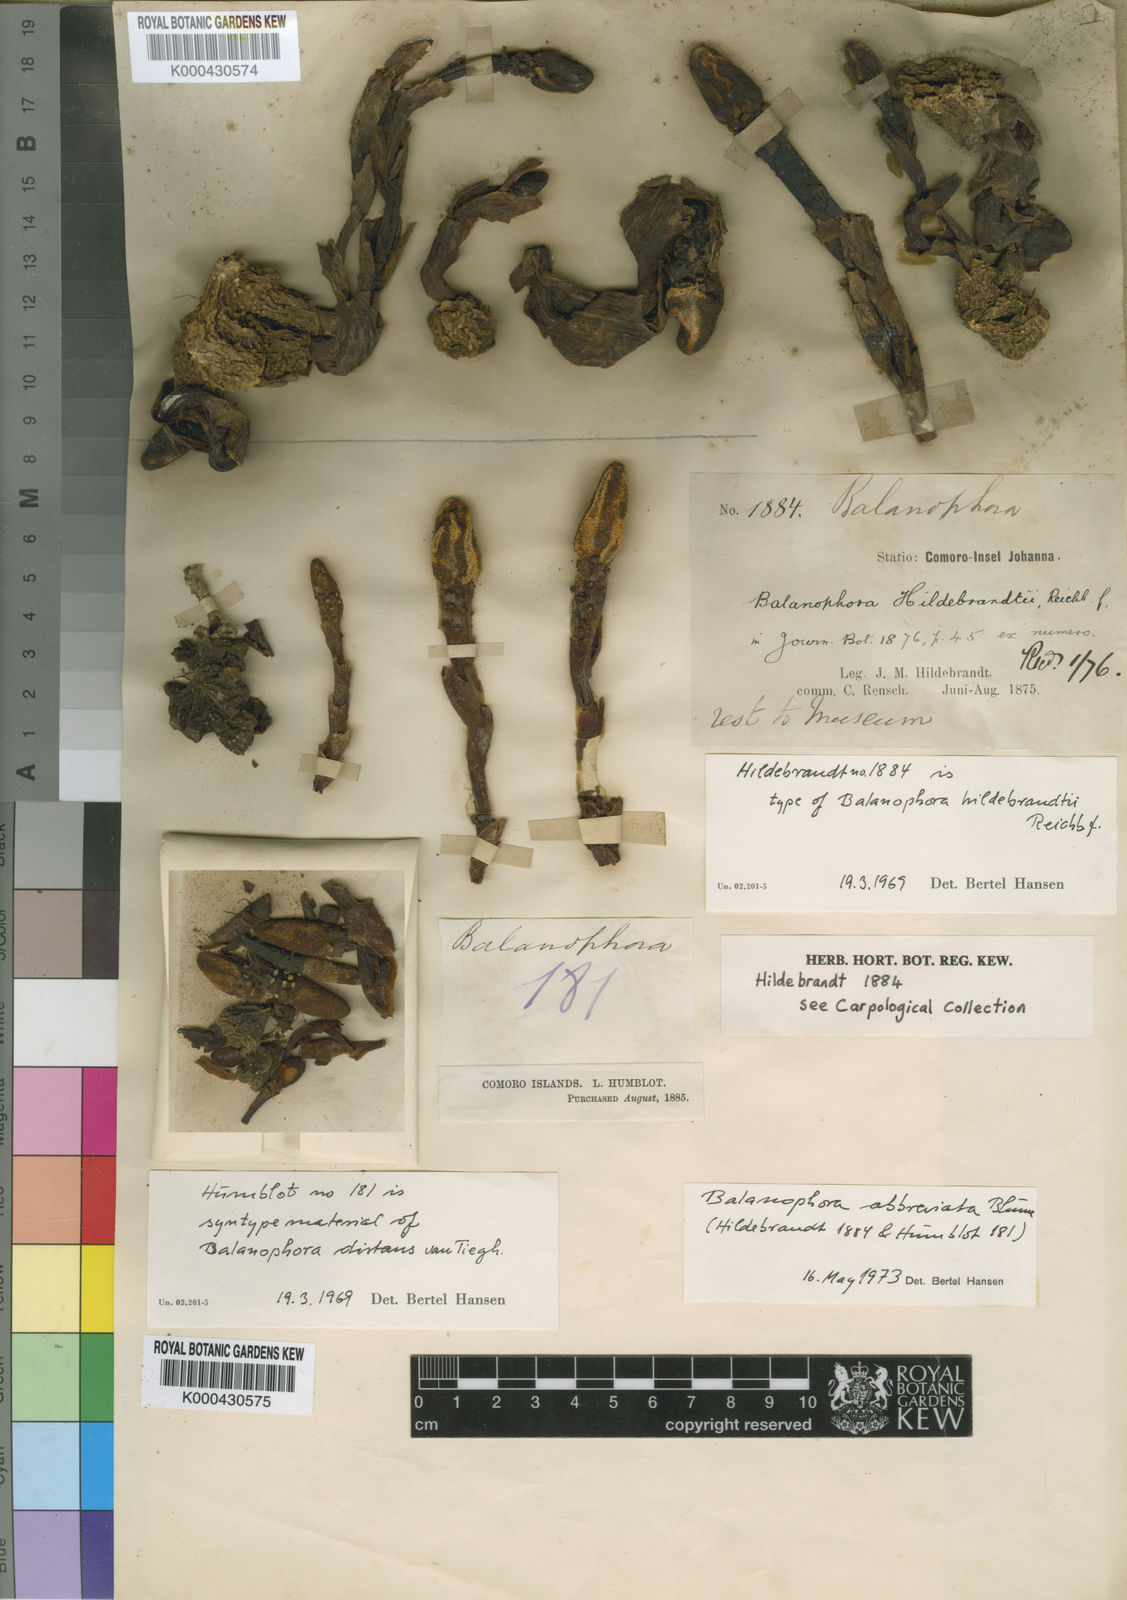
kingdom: Plantae
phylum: Tracheophyta
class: Magnoliopsida
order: Santalales
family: Balanophoraceae
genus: Balanophora
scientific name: Balanophora abbreviata
